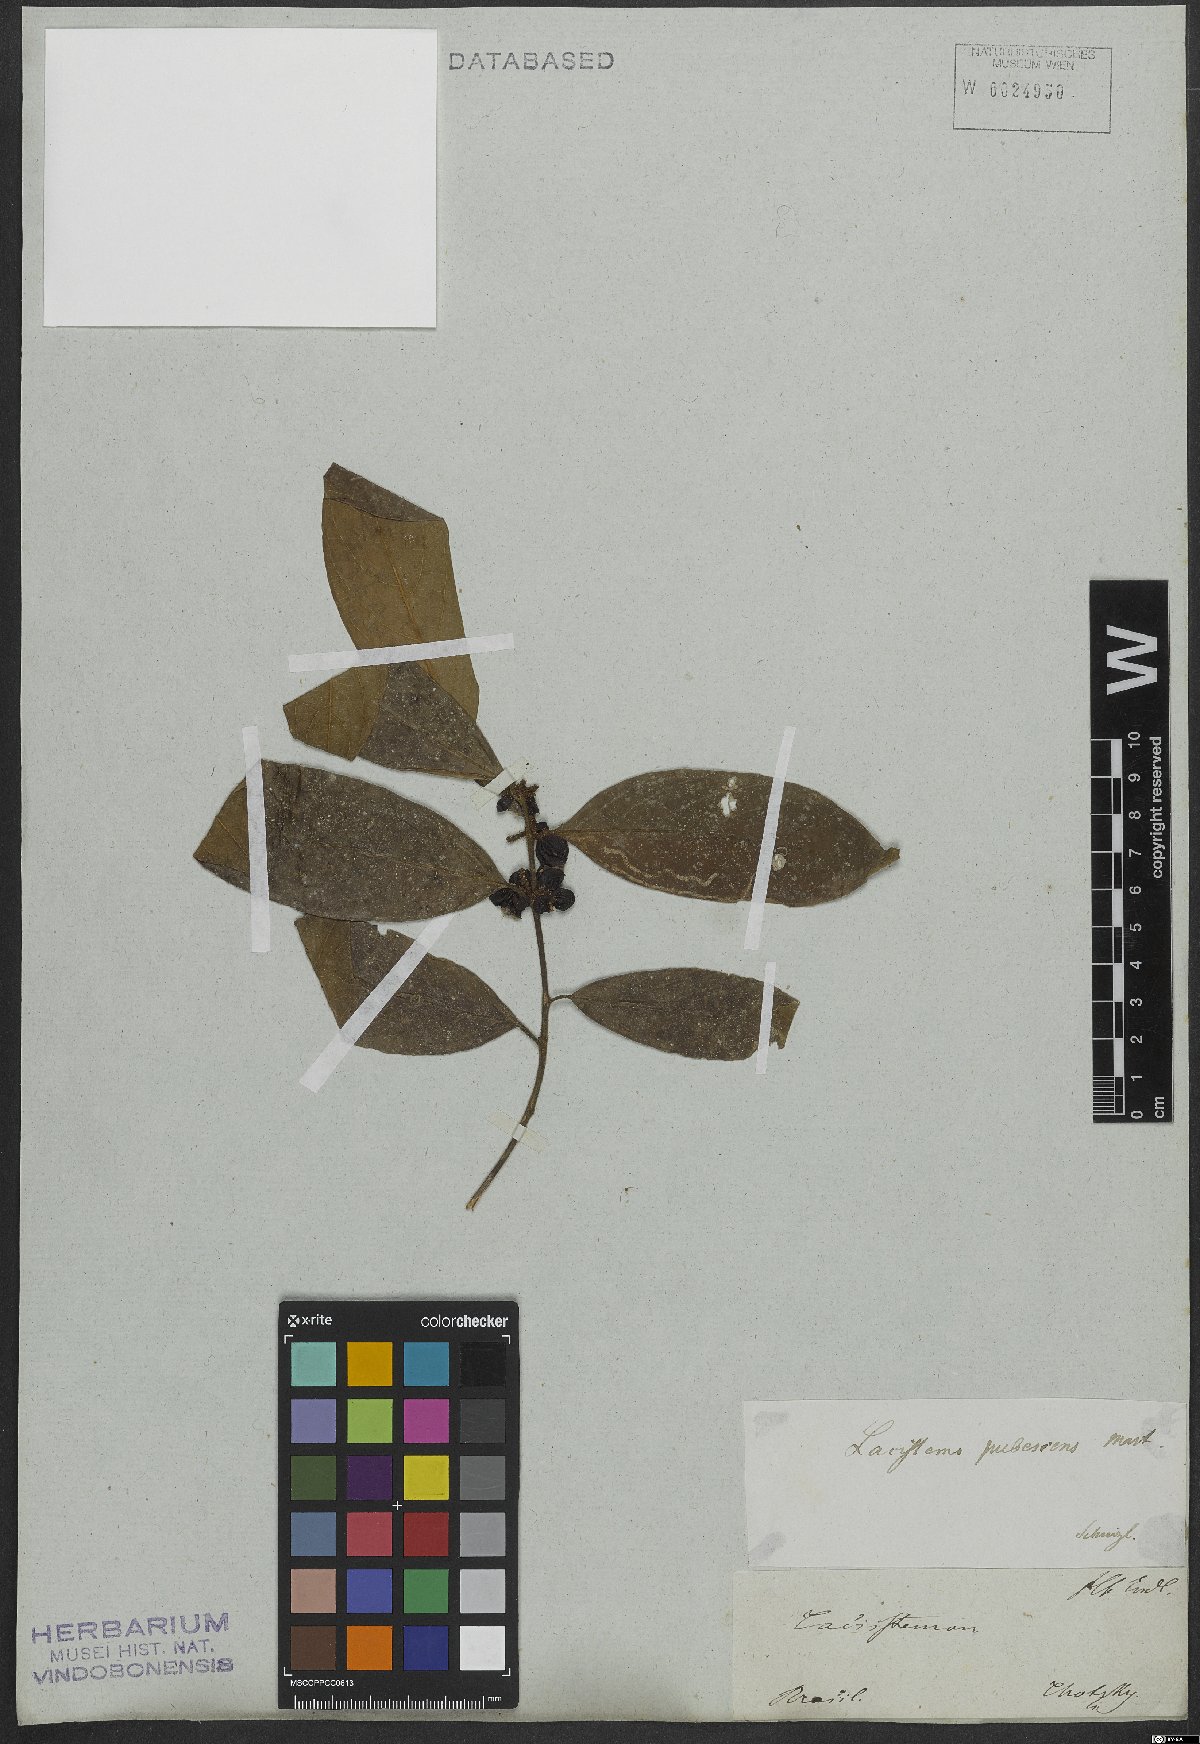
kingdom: Plantae
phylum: Tracheophyta
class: Magnoliopsida
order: Malpighiales
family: Lacistemataceae
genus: Lacistema
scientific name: Lacistema pubescens
